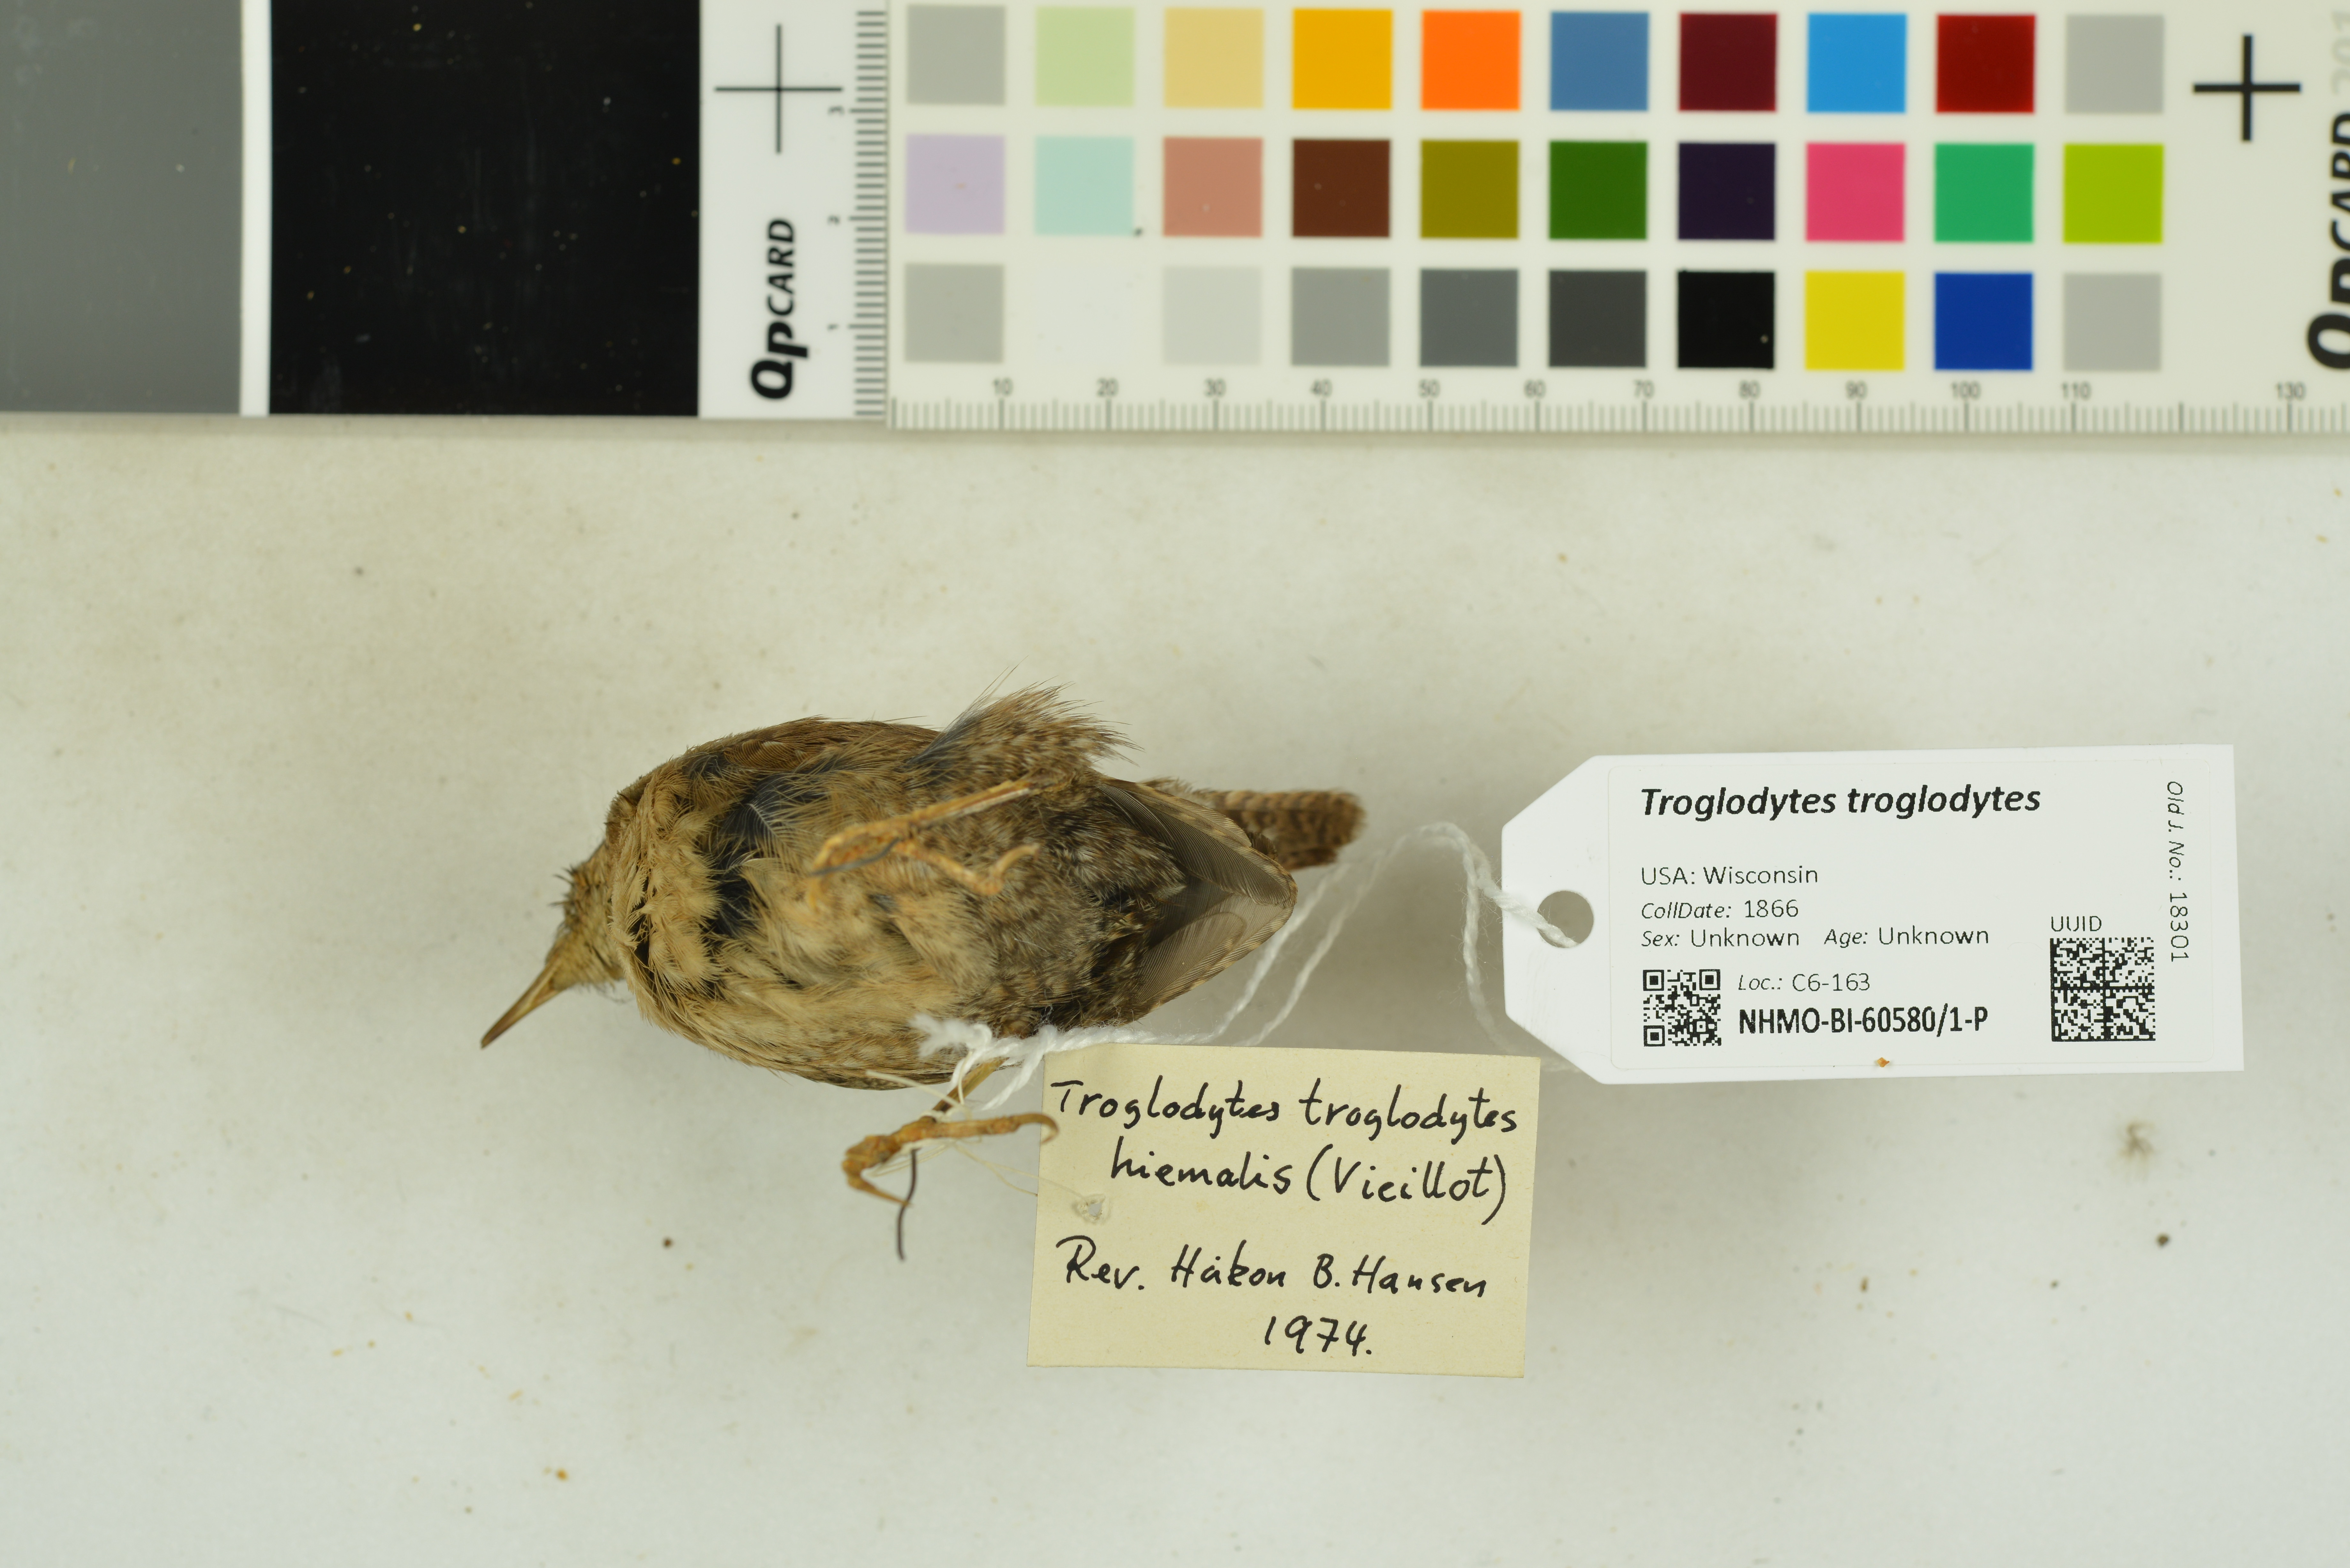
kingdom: Animalia
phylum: Chordata
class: Aves
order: Passeriformes
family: Troglodytidae
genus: Troglodytes
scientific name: Troglodytes hiemalis
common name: Winter wren
